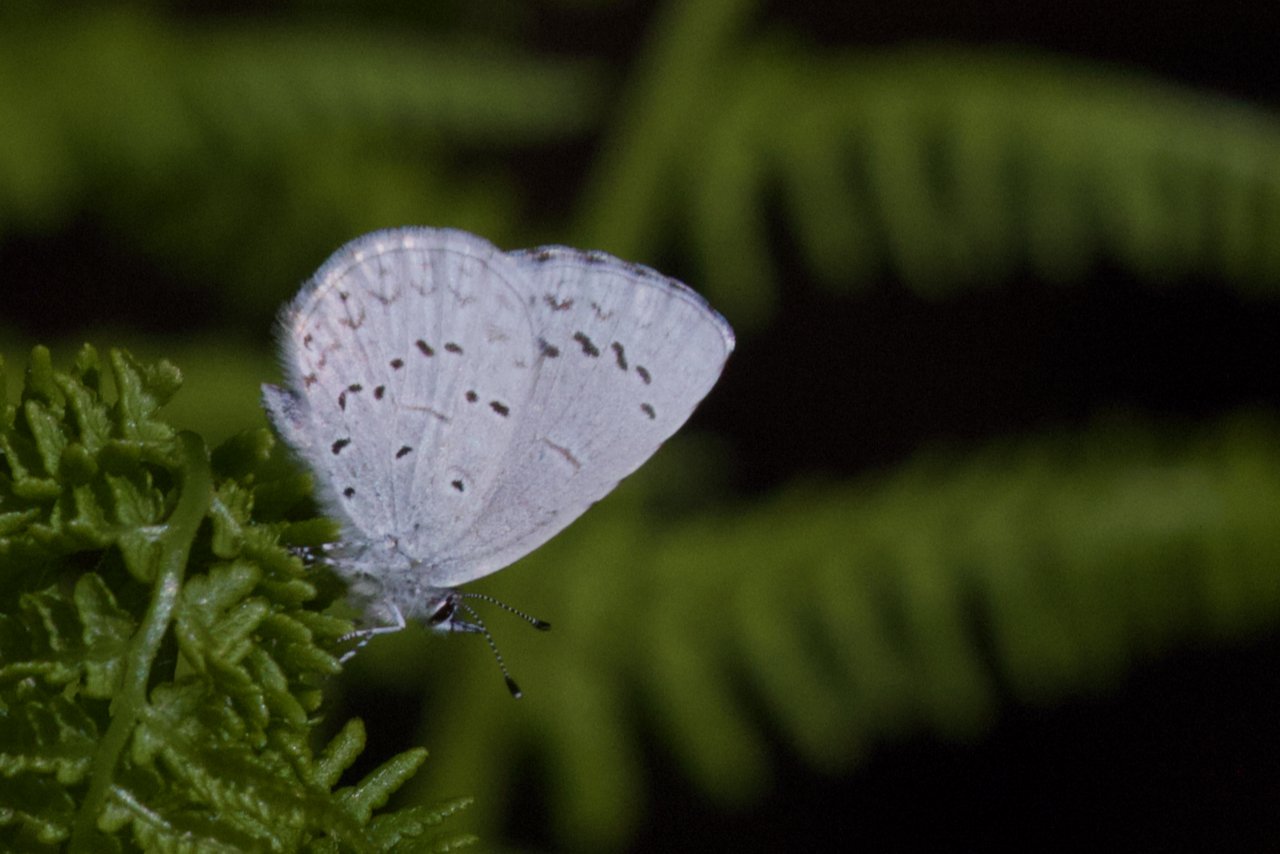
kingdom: Animalia
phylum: Arthropoda
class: Insecta
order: Lepidoptera
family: Lycaenidae
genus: Celastrina
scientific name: Celastrina ladon
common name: Echo Azure
